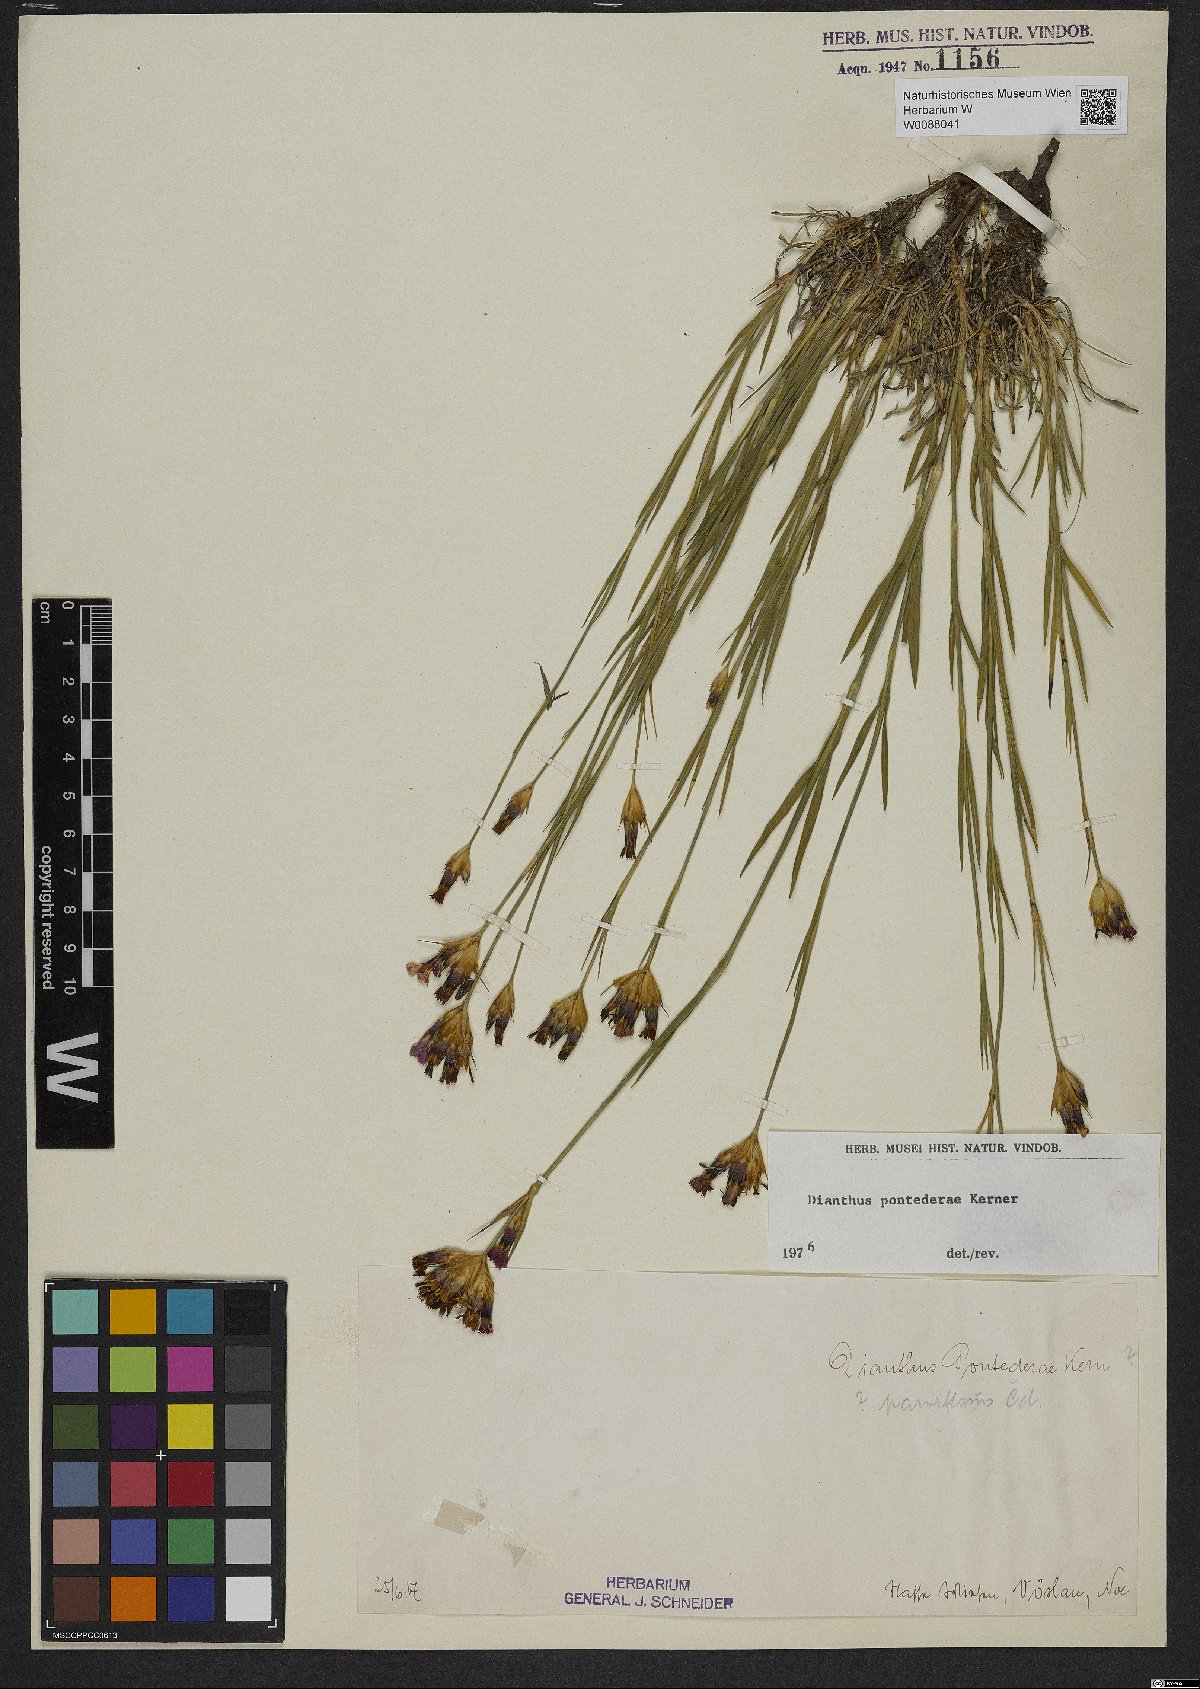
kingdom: Plantae
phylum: Tracheophyta
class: Magnoliopsida
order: Caryophyllales
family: Caryophyllaceae
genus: Dianthus
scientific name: Dianthus pontederae
